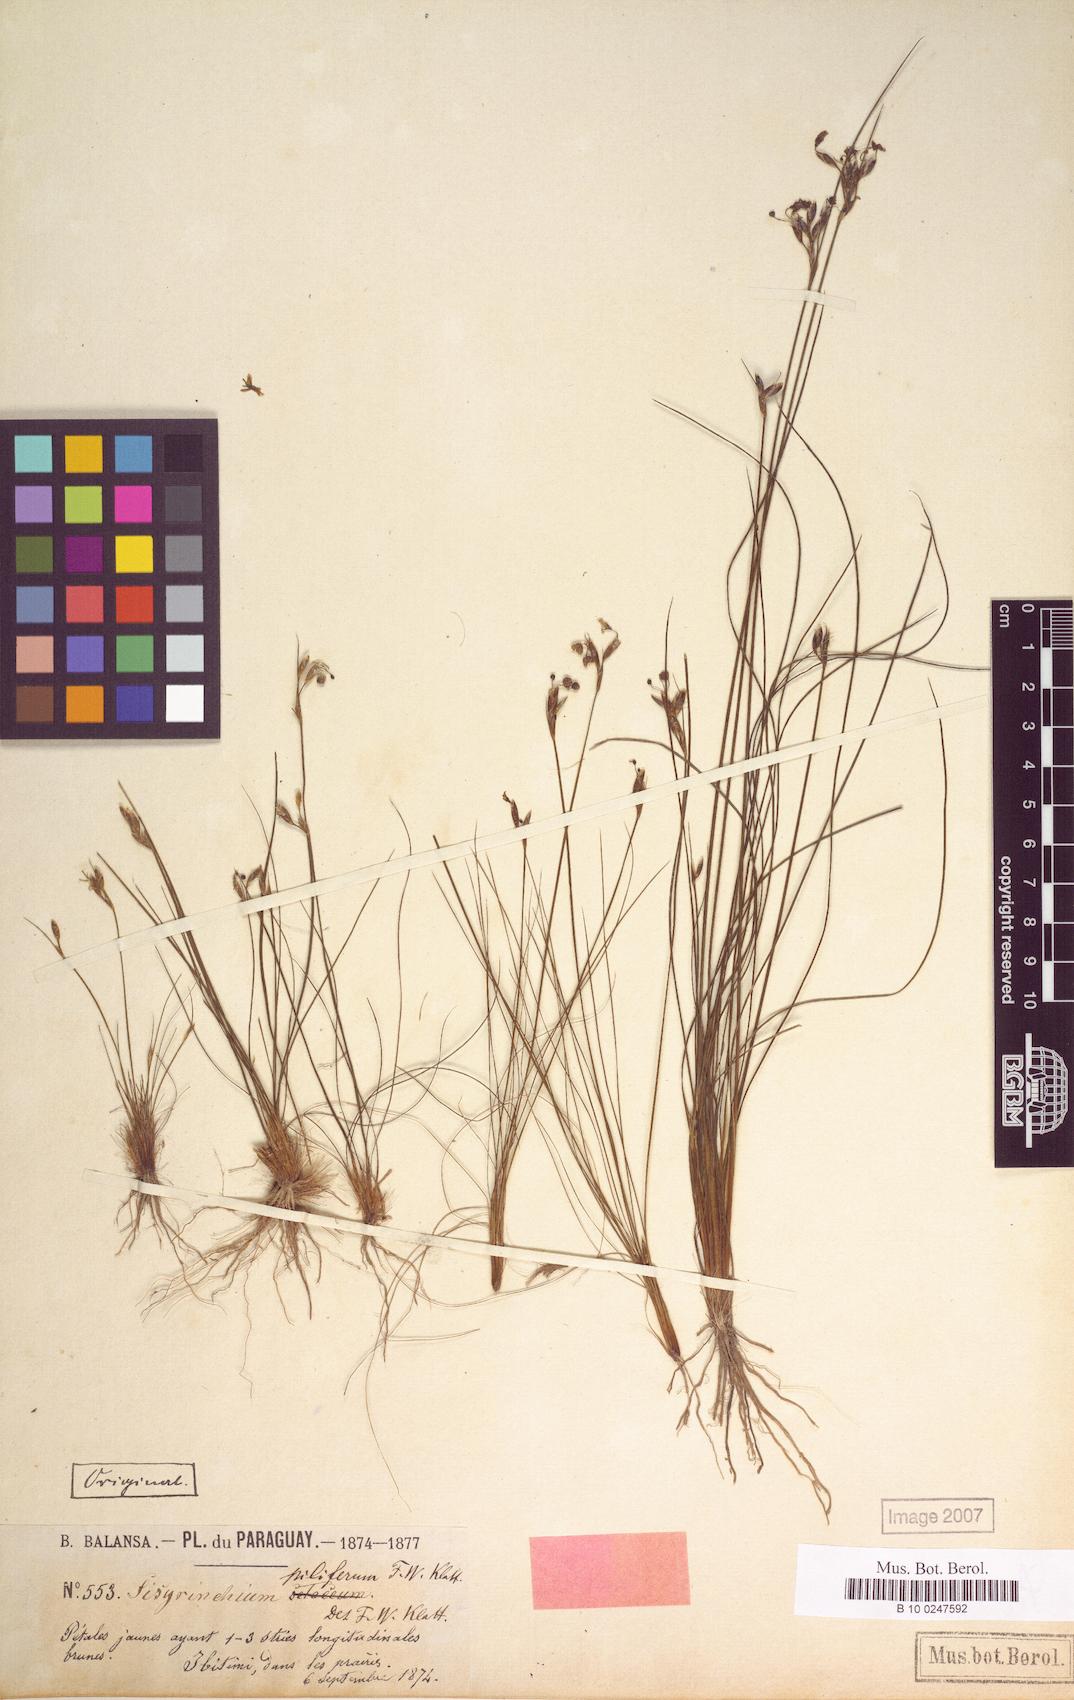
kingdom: Plantae
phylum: Tracheophyta
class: Liliopsida
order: Asparagales
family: Iridaceae
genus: Sisyrinchium
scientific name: Sisyrinchium commutatum
